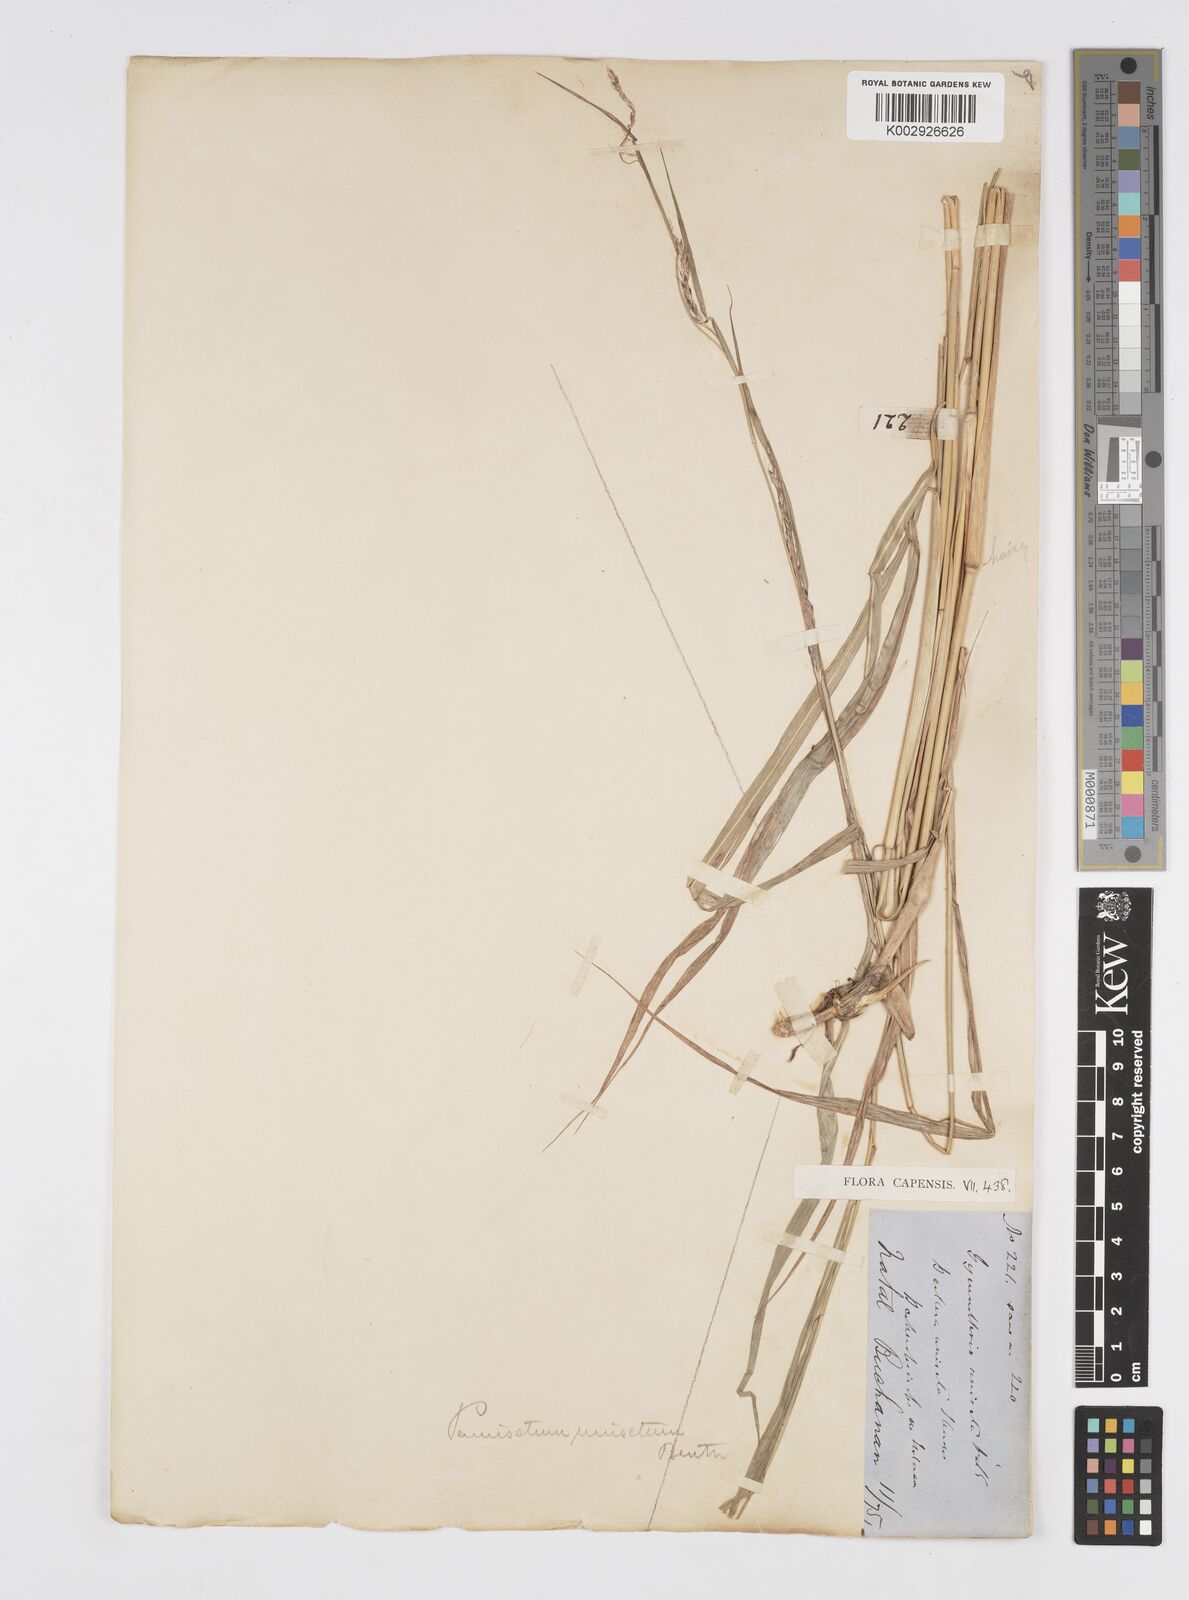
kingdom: Plantae
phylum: Tracheophyta
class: Liliopsida
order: Poales
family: Poaceae
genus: Cenchrus
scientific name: Cenchrus unisetus
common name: Natal grass
